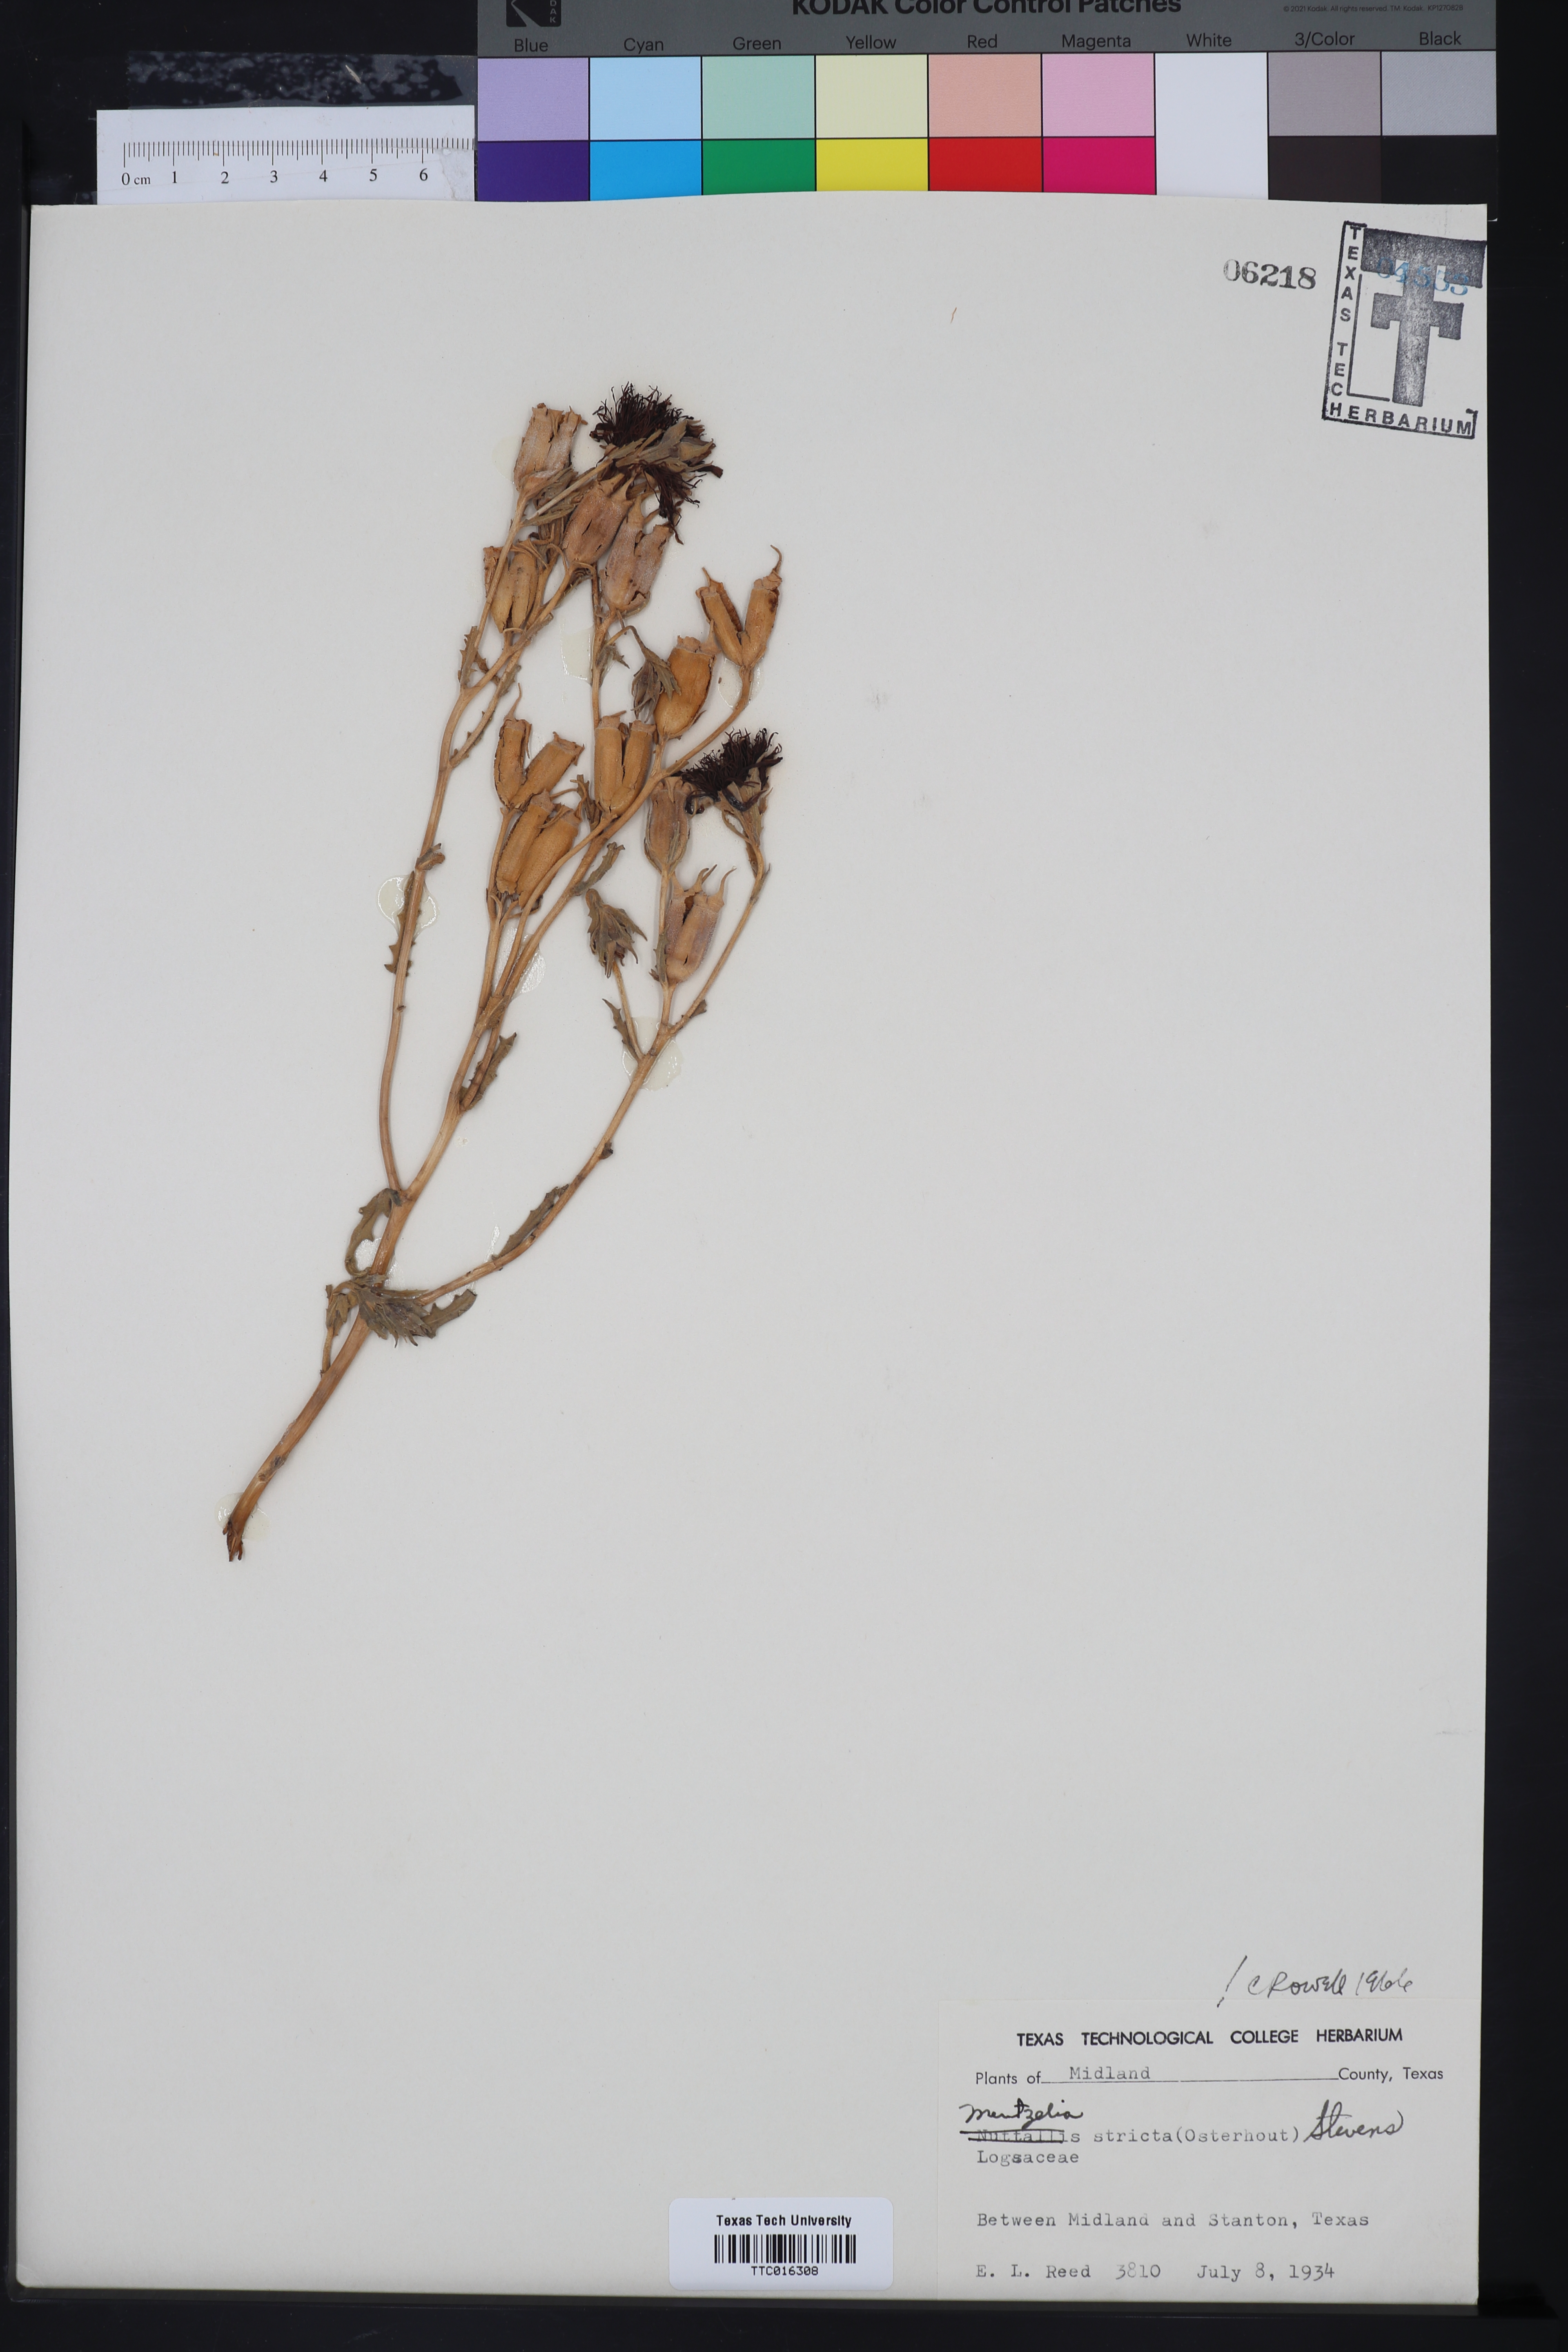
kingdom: Plantae
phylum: Tracheophyta
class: Magnoliopsida
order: Cornales
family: Loasaceae
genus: Mentzelia
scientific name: Mentzelia nuda
